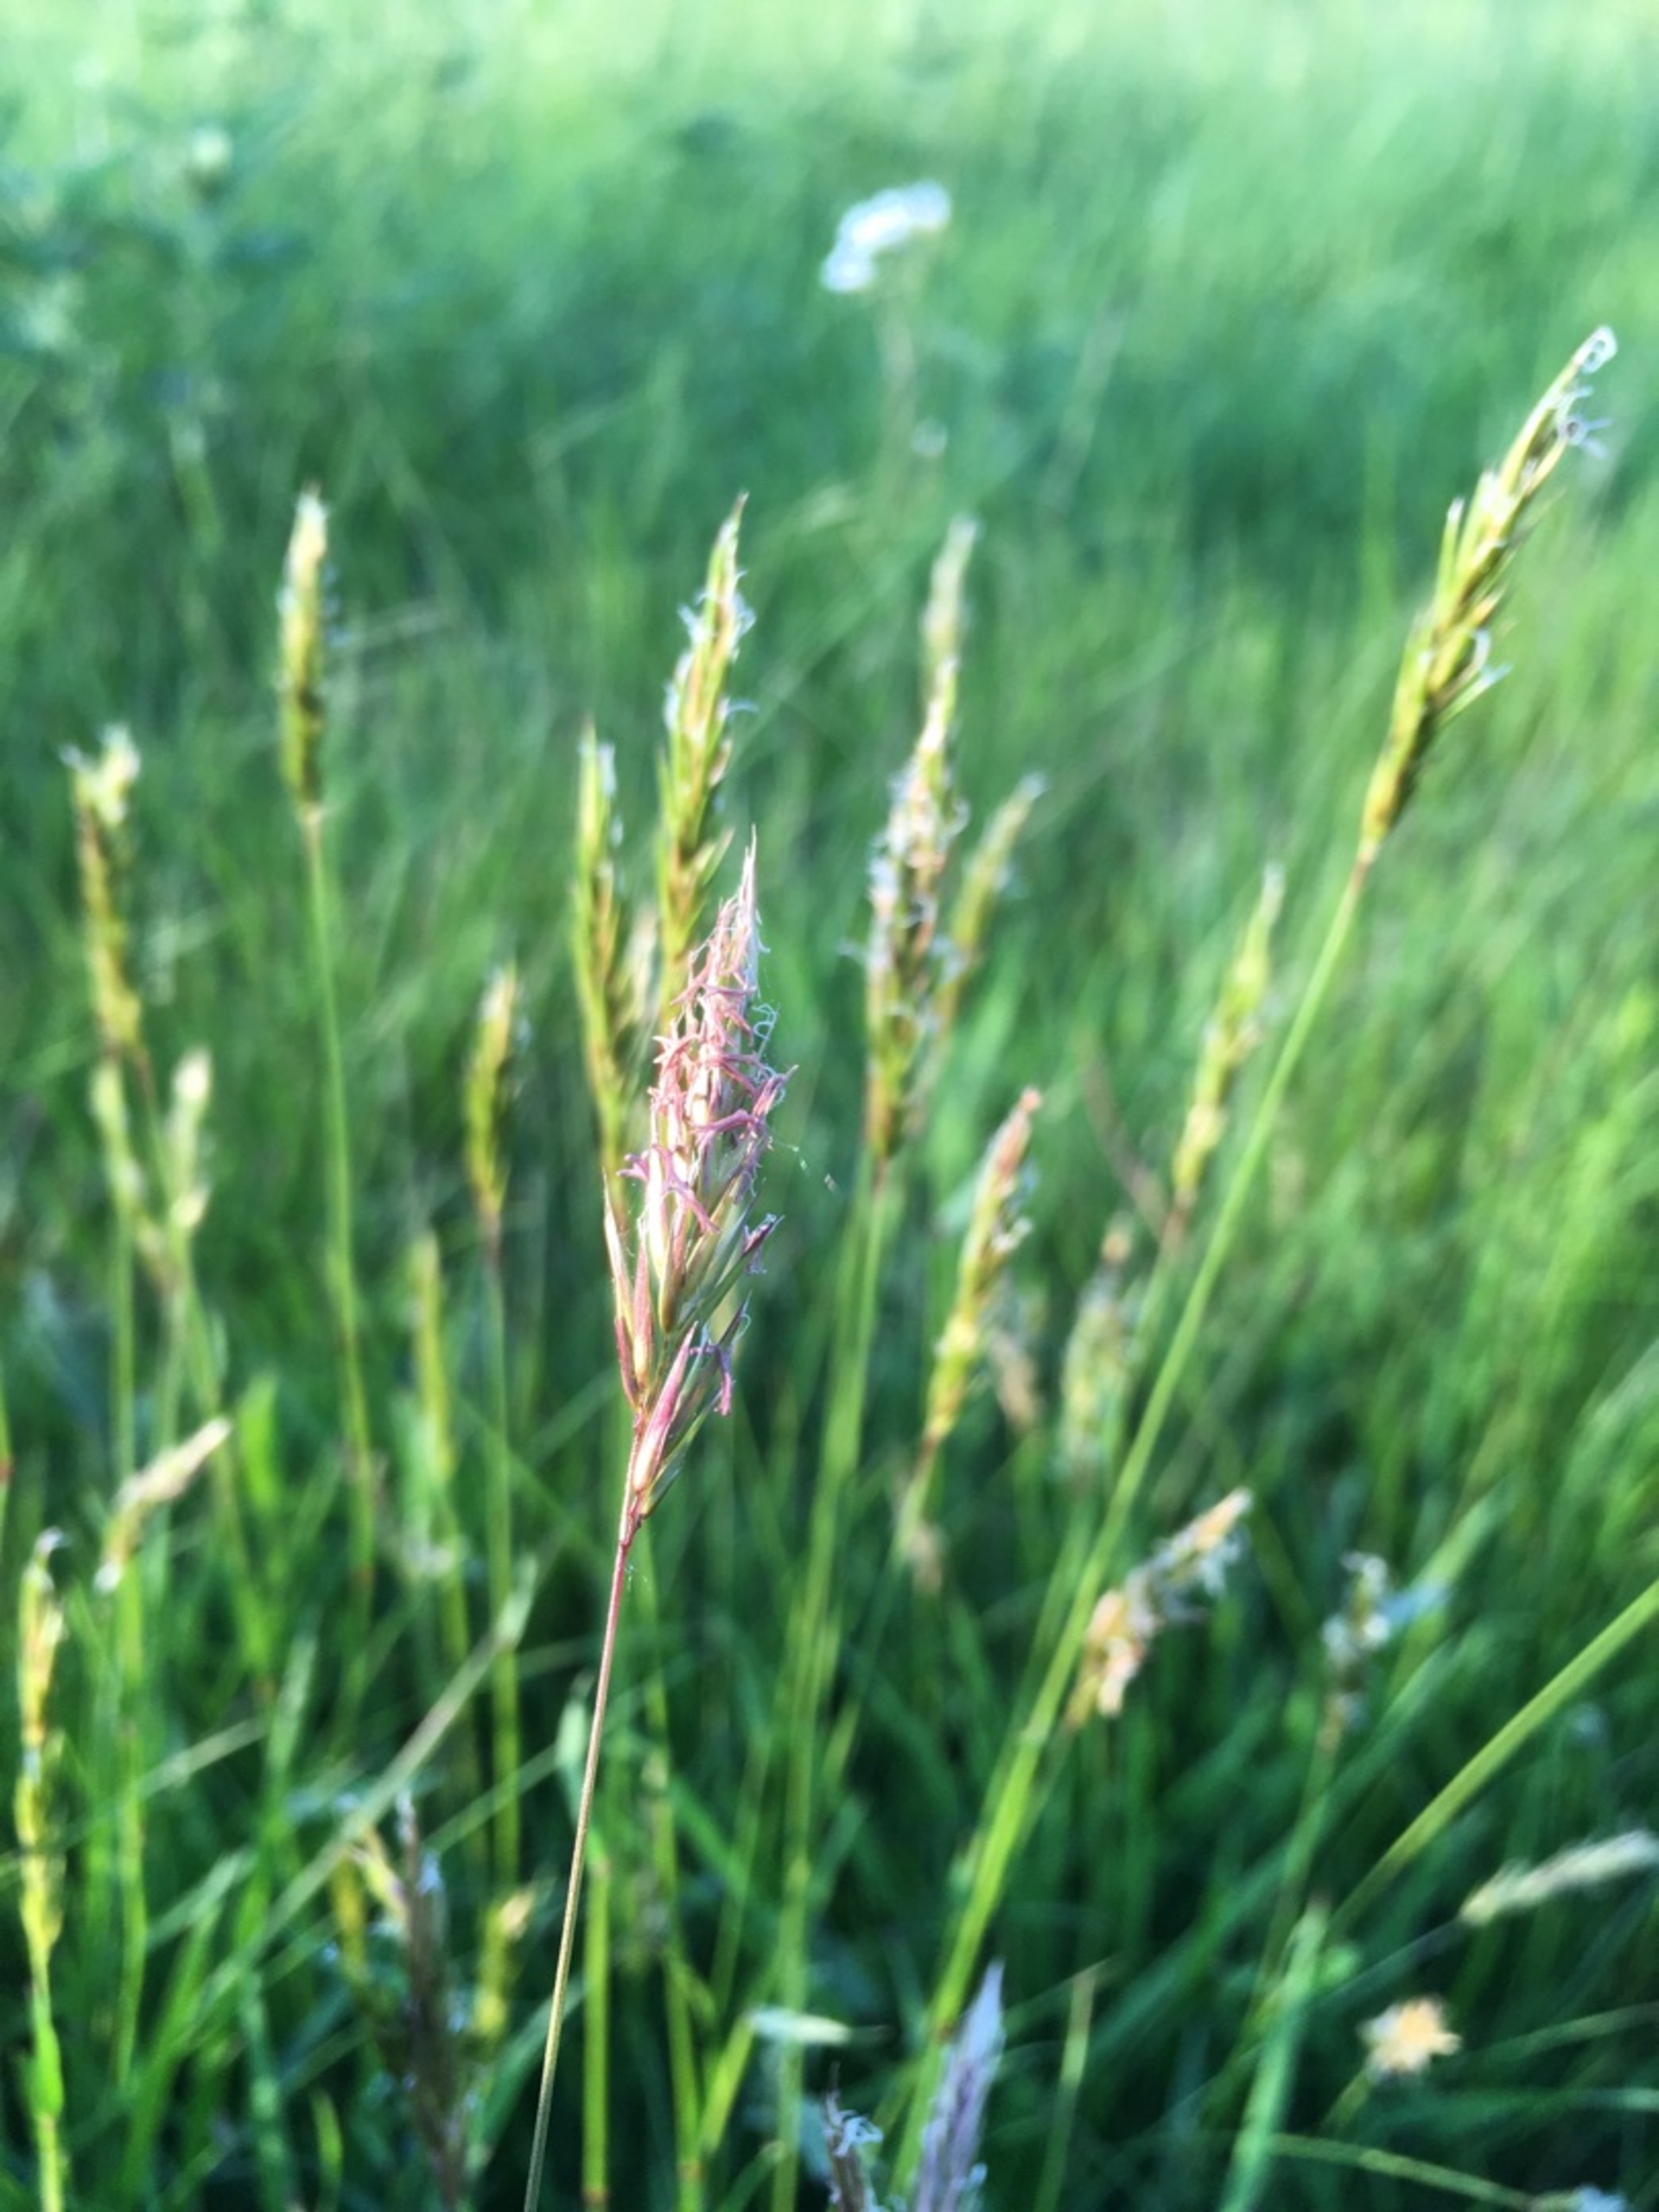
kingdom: Plantae
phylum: Tracheophyta
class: Liliopsida
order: Poales
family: Poaceae
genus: Anthoxanthum
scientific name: Anthoxanthum odoratum
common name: Vellugtende gulaks
